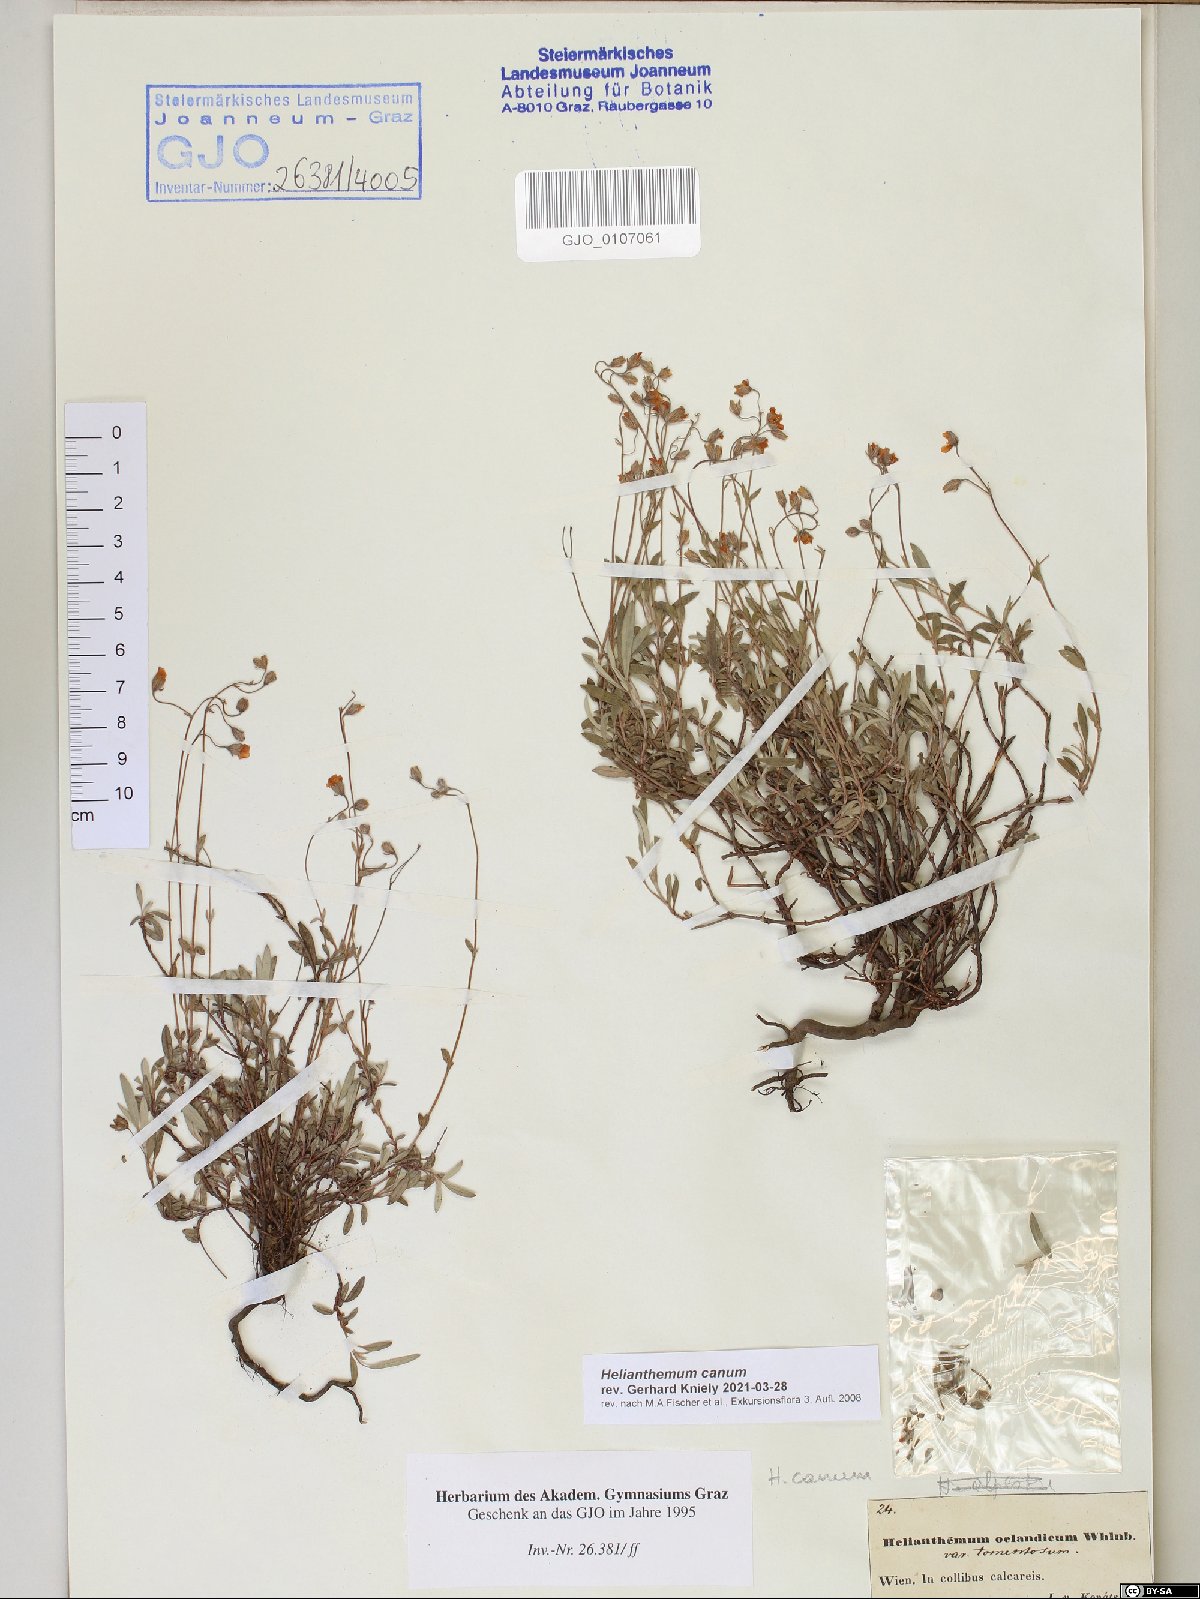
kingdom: Plantae
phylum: Tracheophyta
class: Magnoliopsida
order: Malvales
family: Cistaceae
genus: Helianthemum
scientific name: Helianthemum canum
